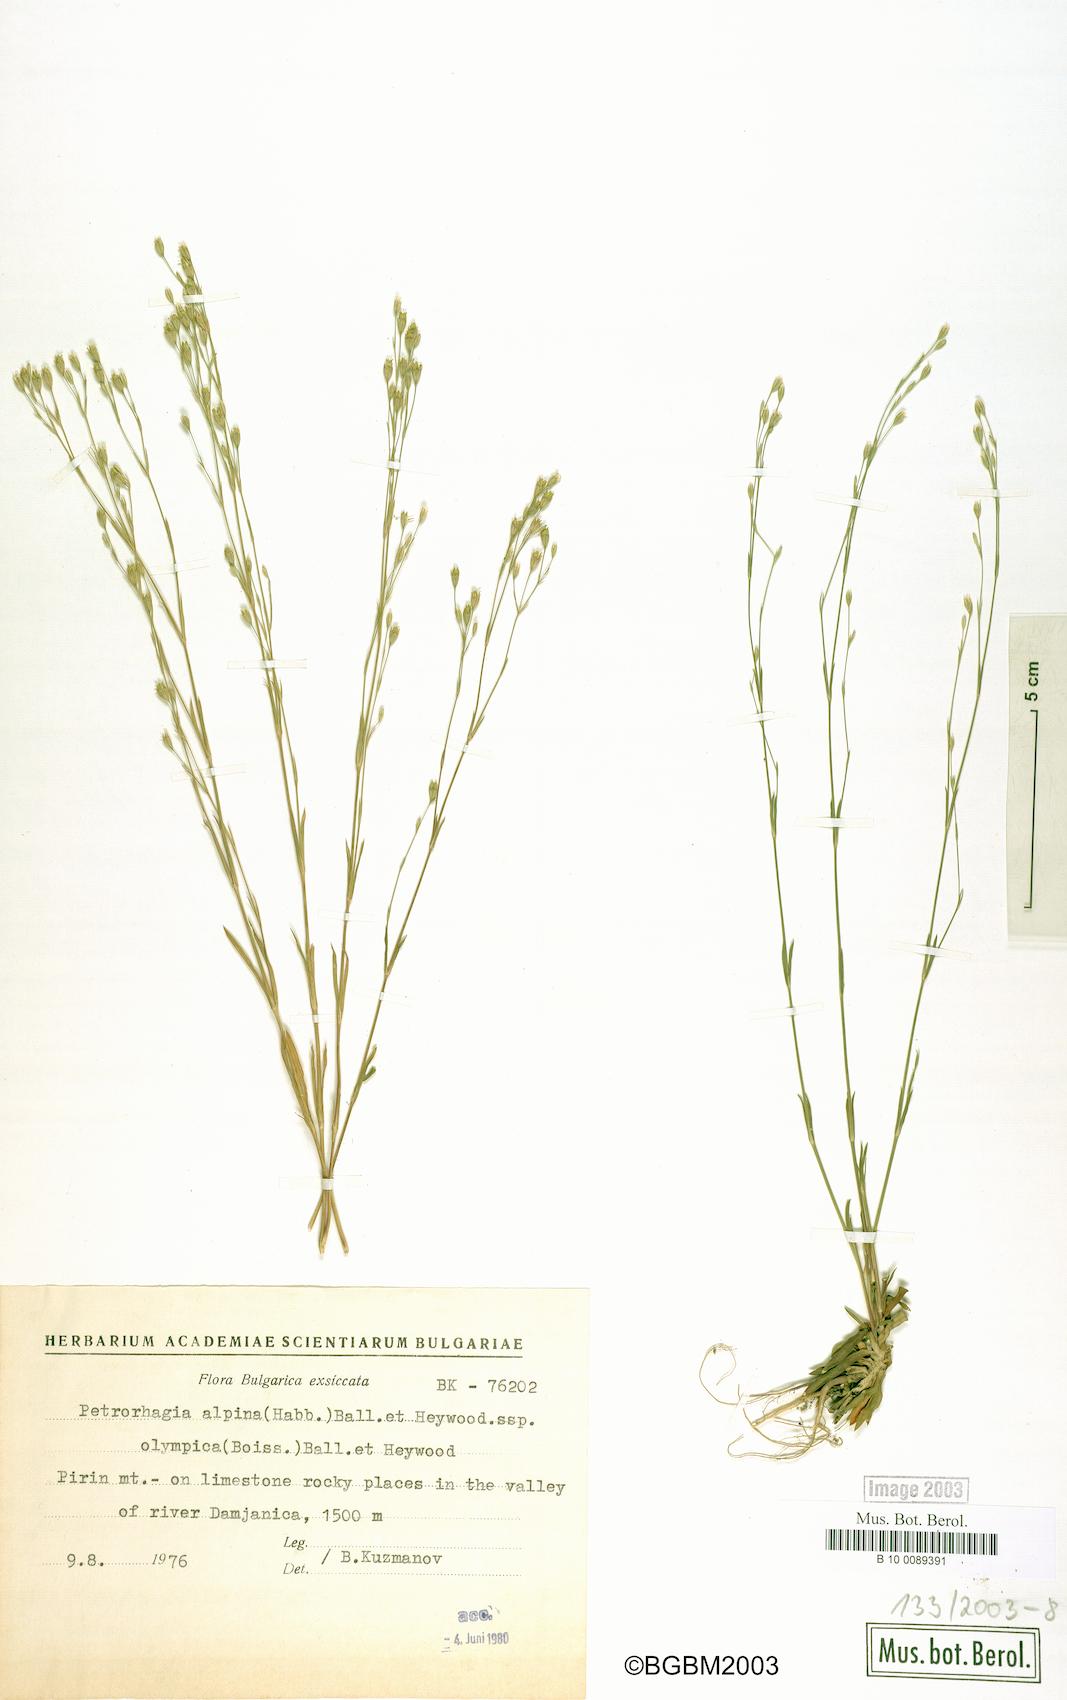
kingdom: Plantae
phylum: Tracheophyta
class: Magnoliopsida
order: Caryophyllales
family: Caryophyllaceae
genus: Petrorhagia
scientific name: Petrorhagia alpina
